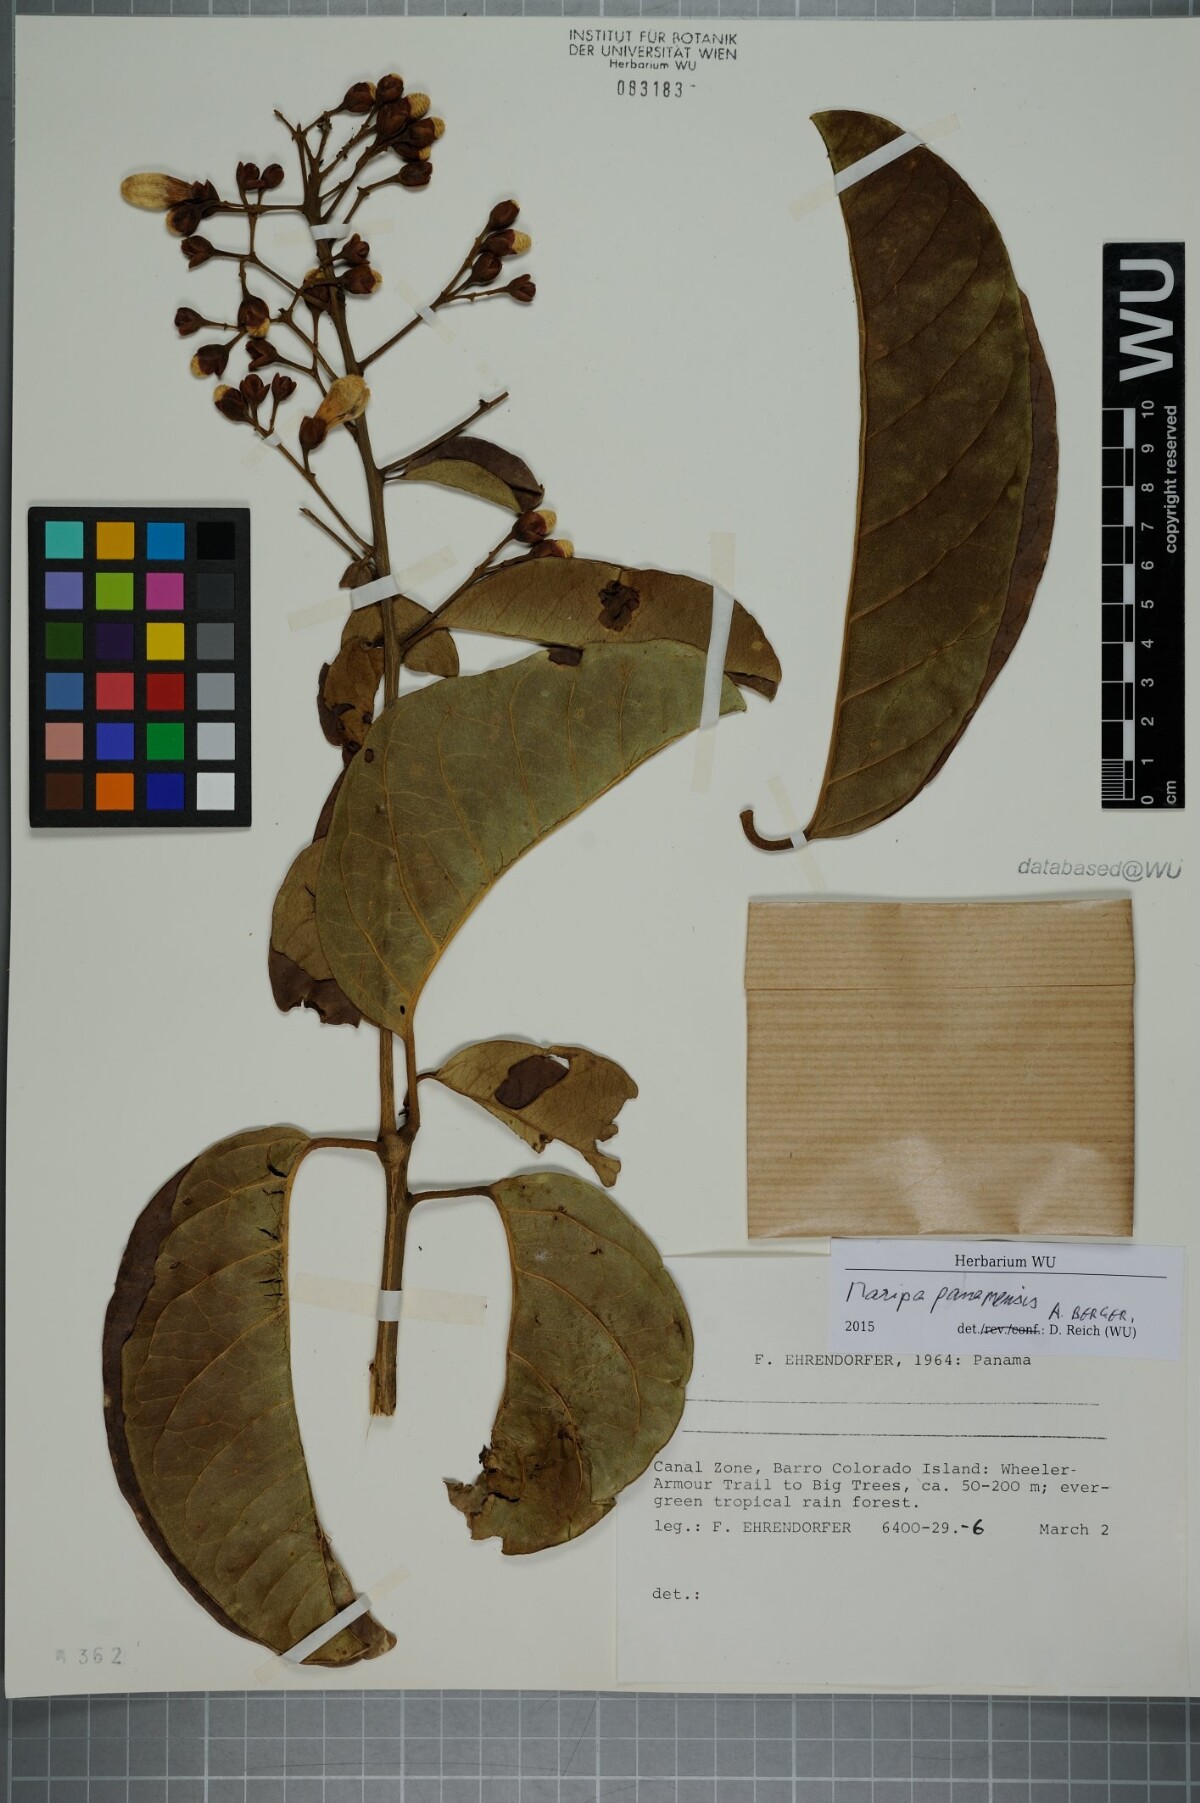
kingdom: Plantae
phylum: Tracheophyta
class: Magnoliopsida
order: Solanales
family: Convolvulaceae
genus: Maripa
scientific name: Maripa panamensis
